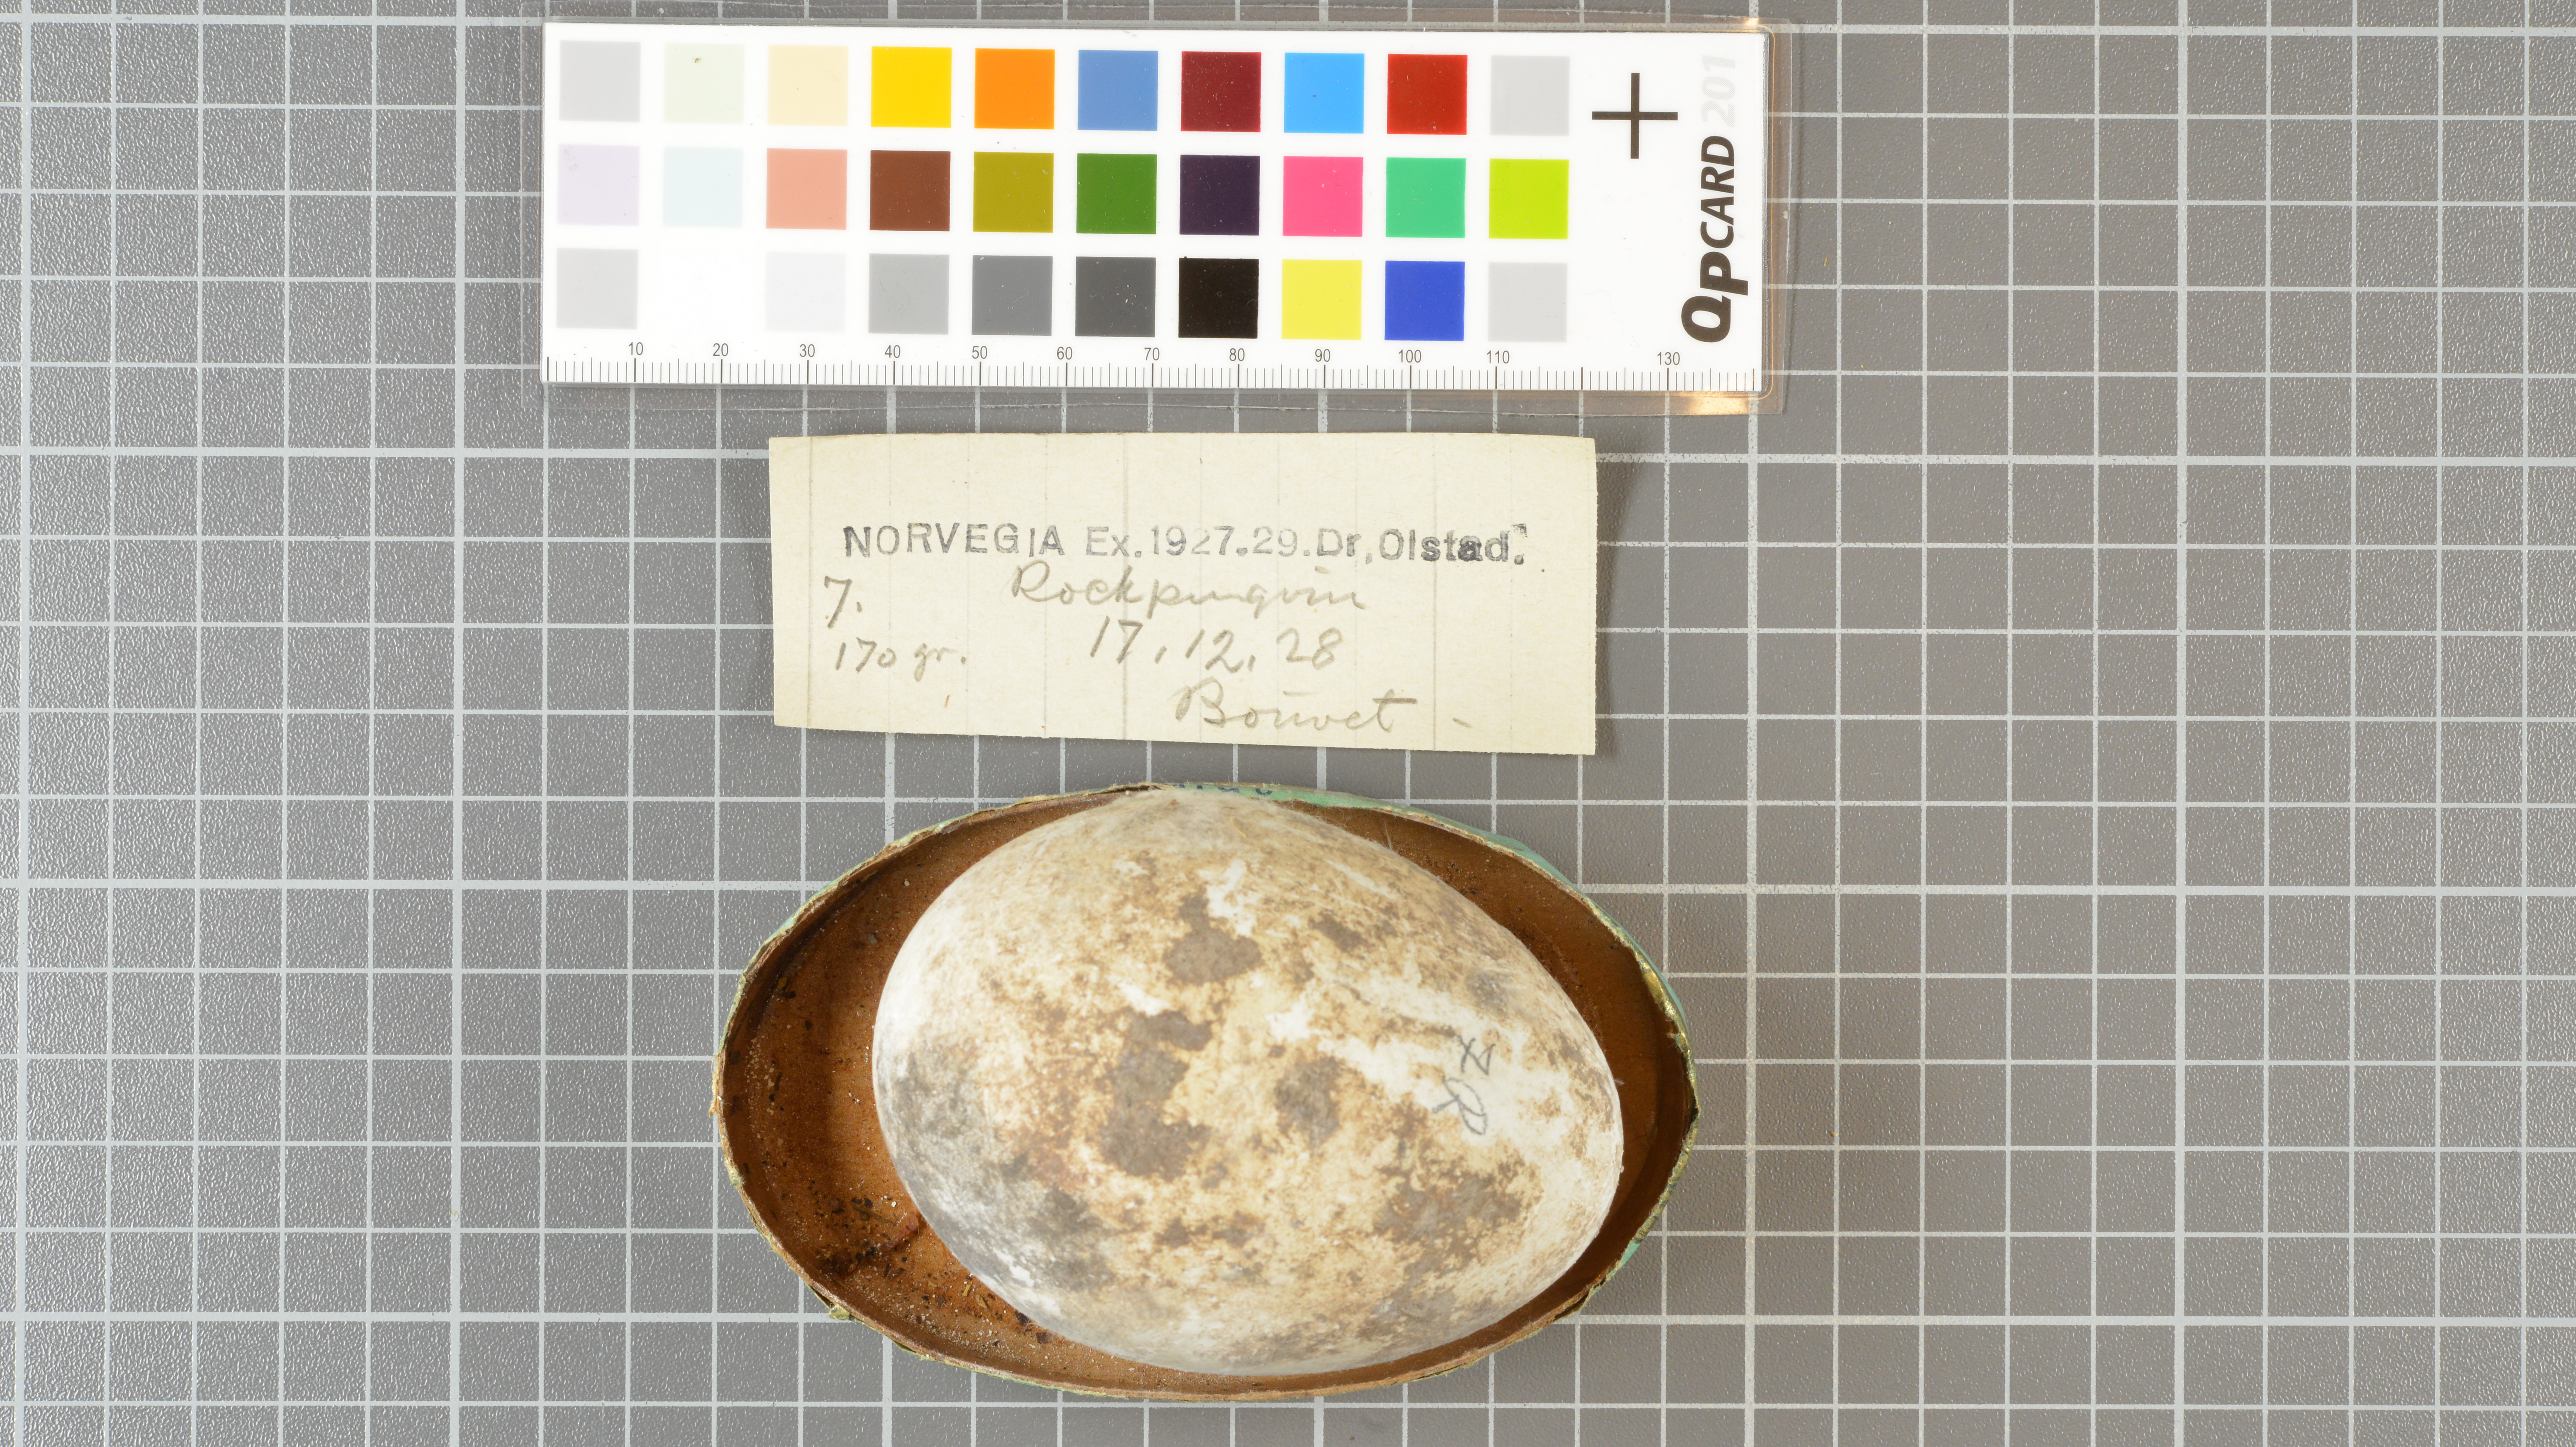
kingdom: Animalia
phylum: Chordata
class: Aves
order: Sphenisciformes
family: Spheniscidae
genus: Eudyptes
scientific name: Eudyptes chrysolophus
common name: Macaroni penguin
